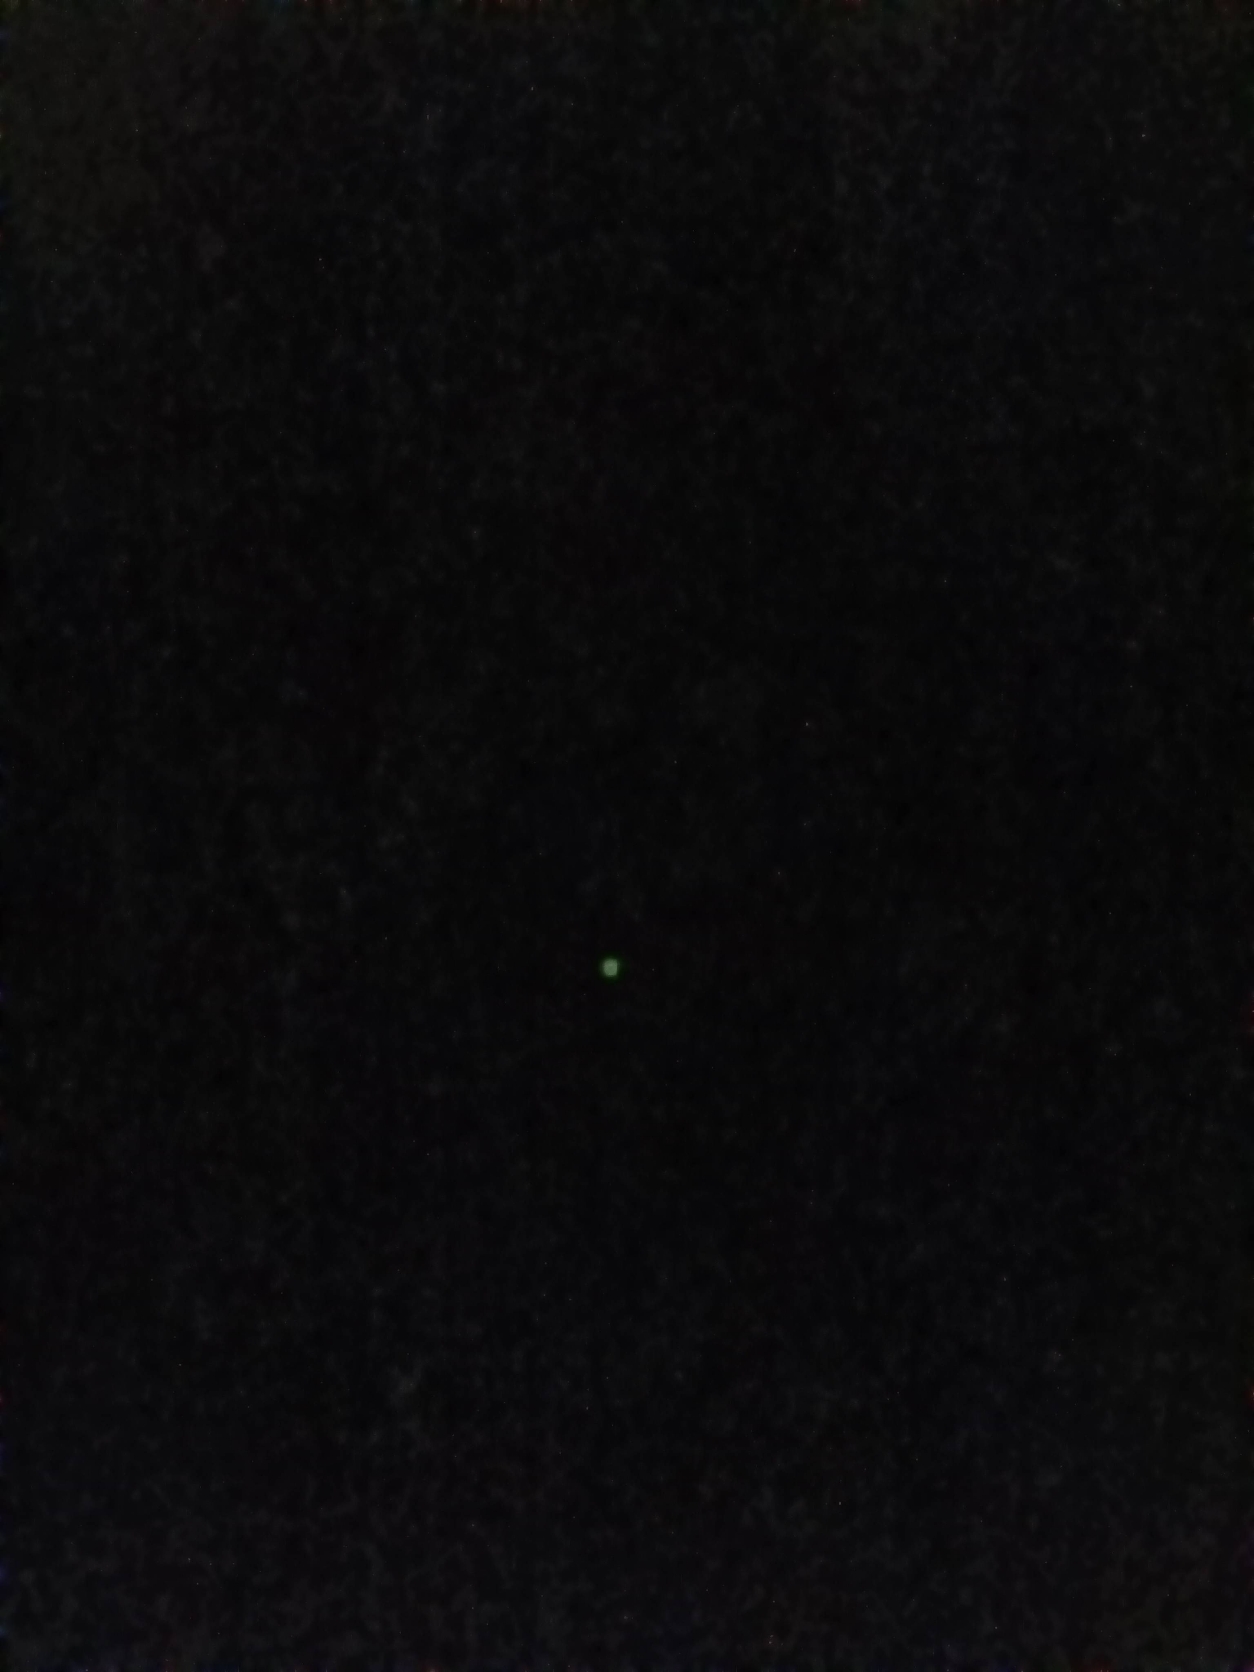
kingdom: Animalia
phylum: Arthropoda
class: Insecta
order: Coleoptera
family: Lampyridae
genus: Lampyris
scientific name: Lampyris noctiluca
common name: Sankthansorm
